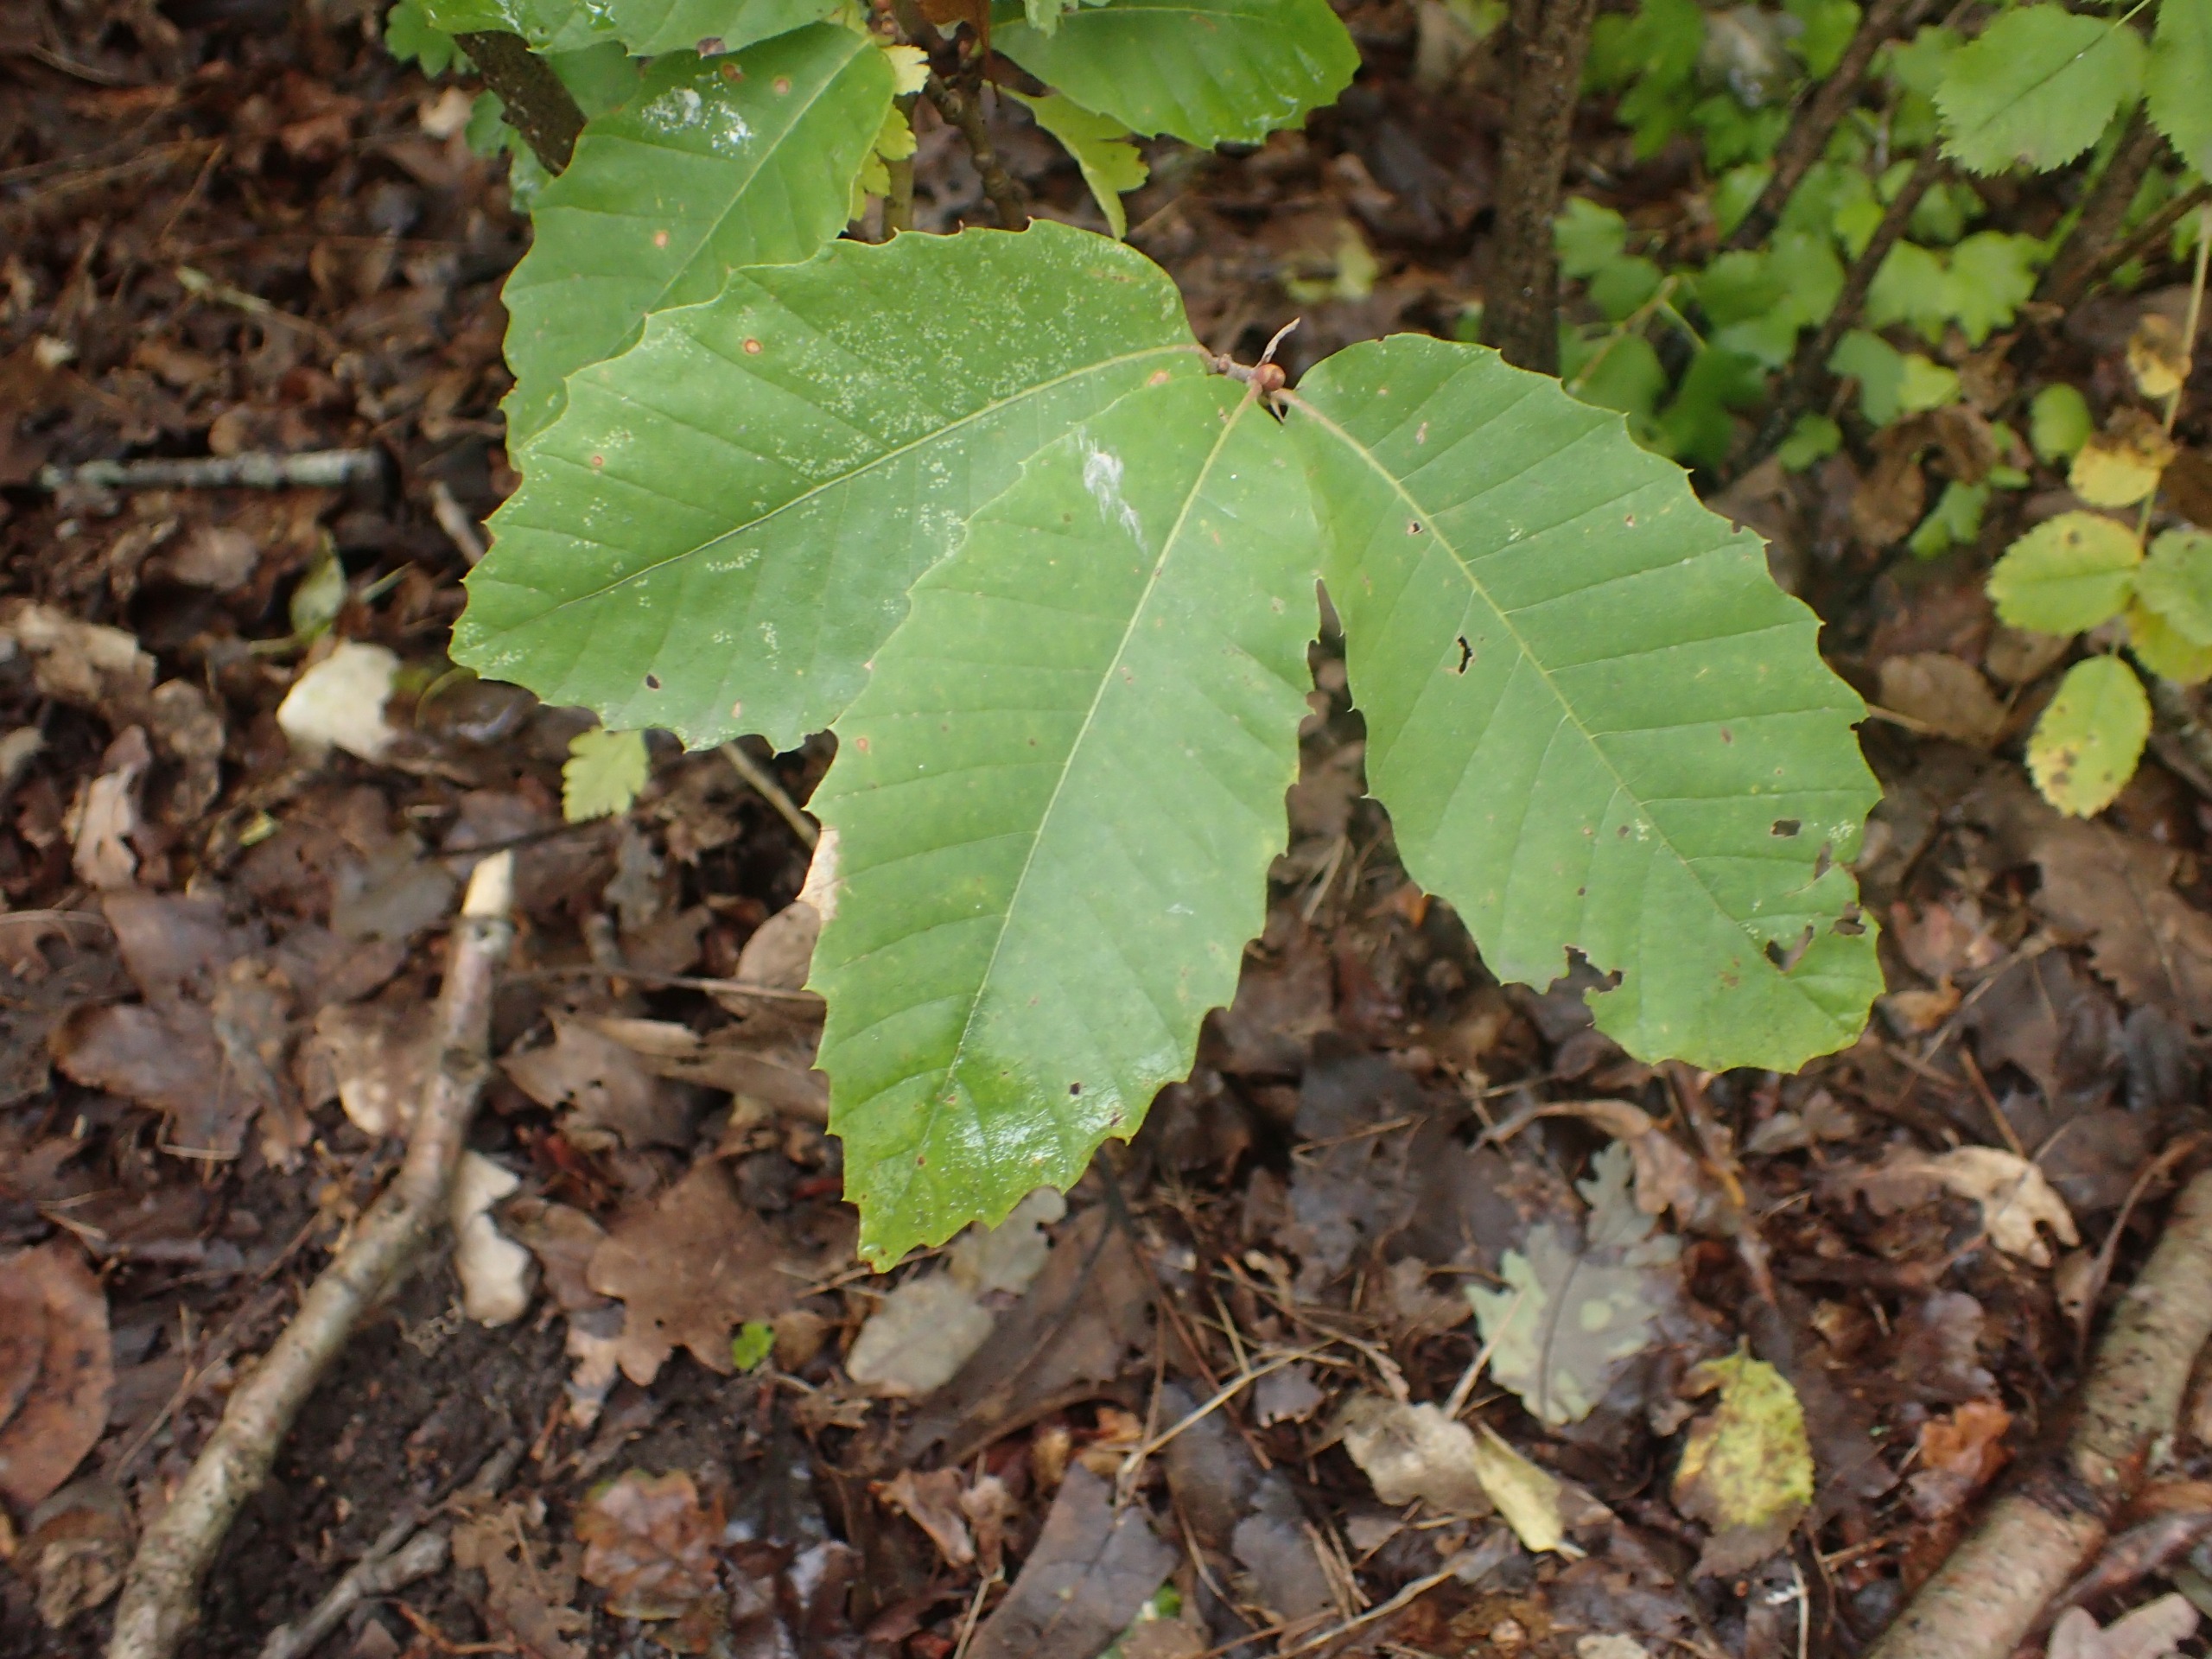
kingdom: Plantae
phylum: Tracheophyta
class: Magnoliopsida
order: Fagales
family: Fagaceae
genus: Castanea
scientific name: Castanea sativa
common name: Ægte kastanie
